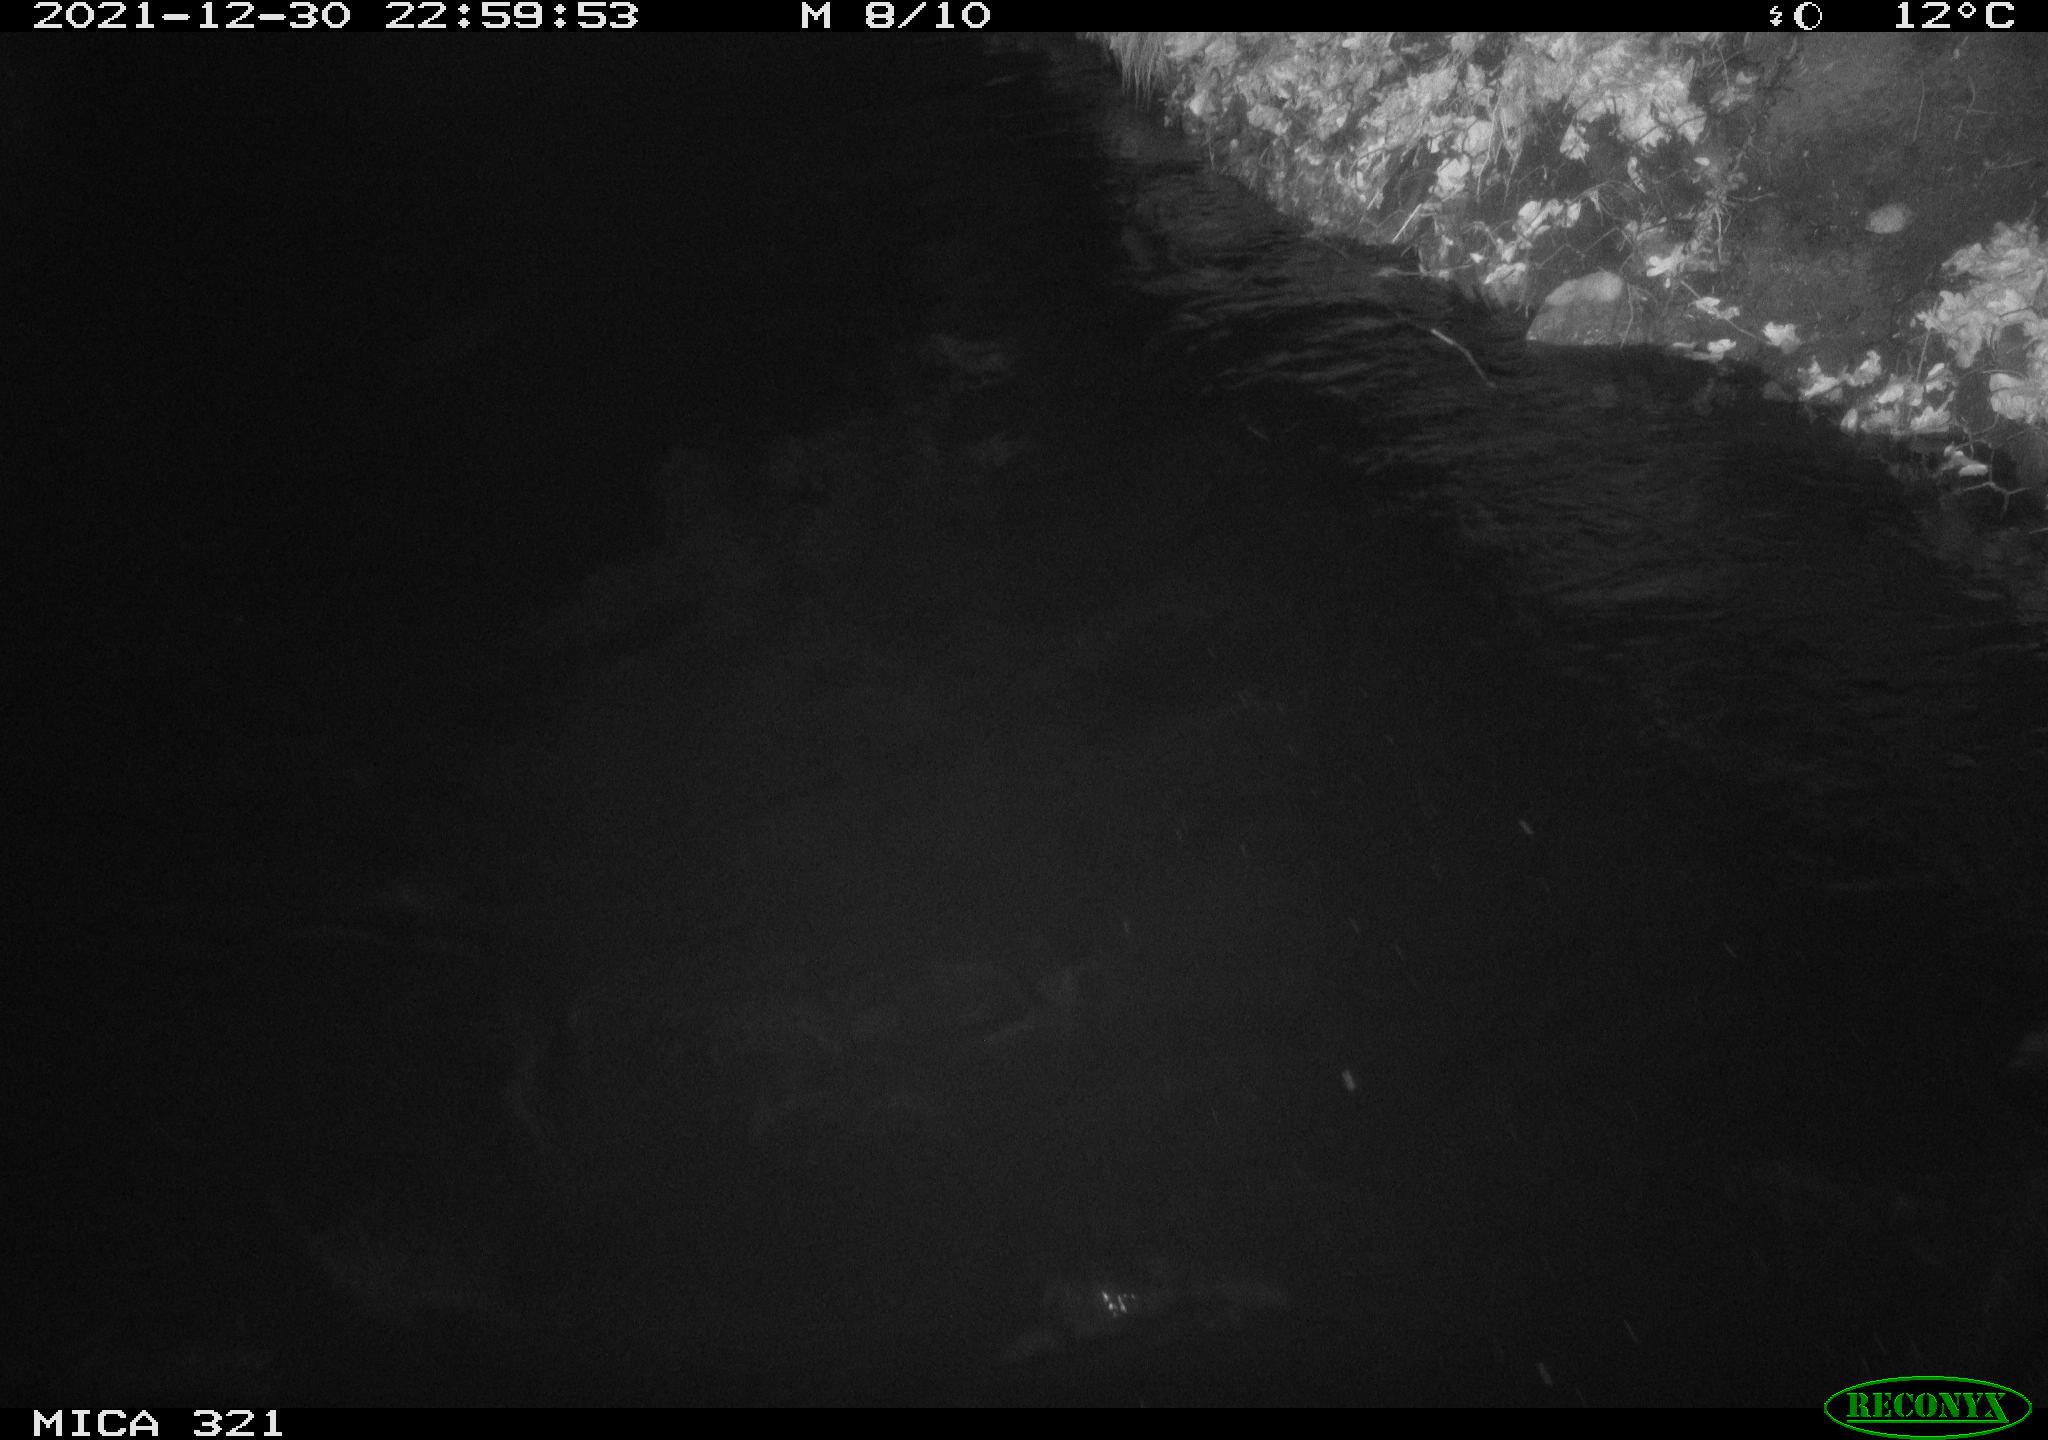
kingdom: Animalia
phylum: Chordata
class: Aves
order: Anseriformes
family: Anatidae
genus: Anas
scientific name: Anas
